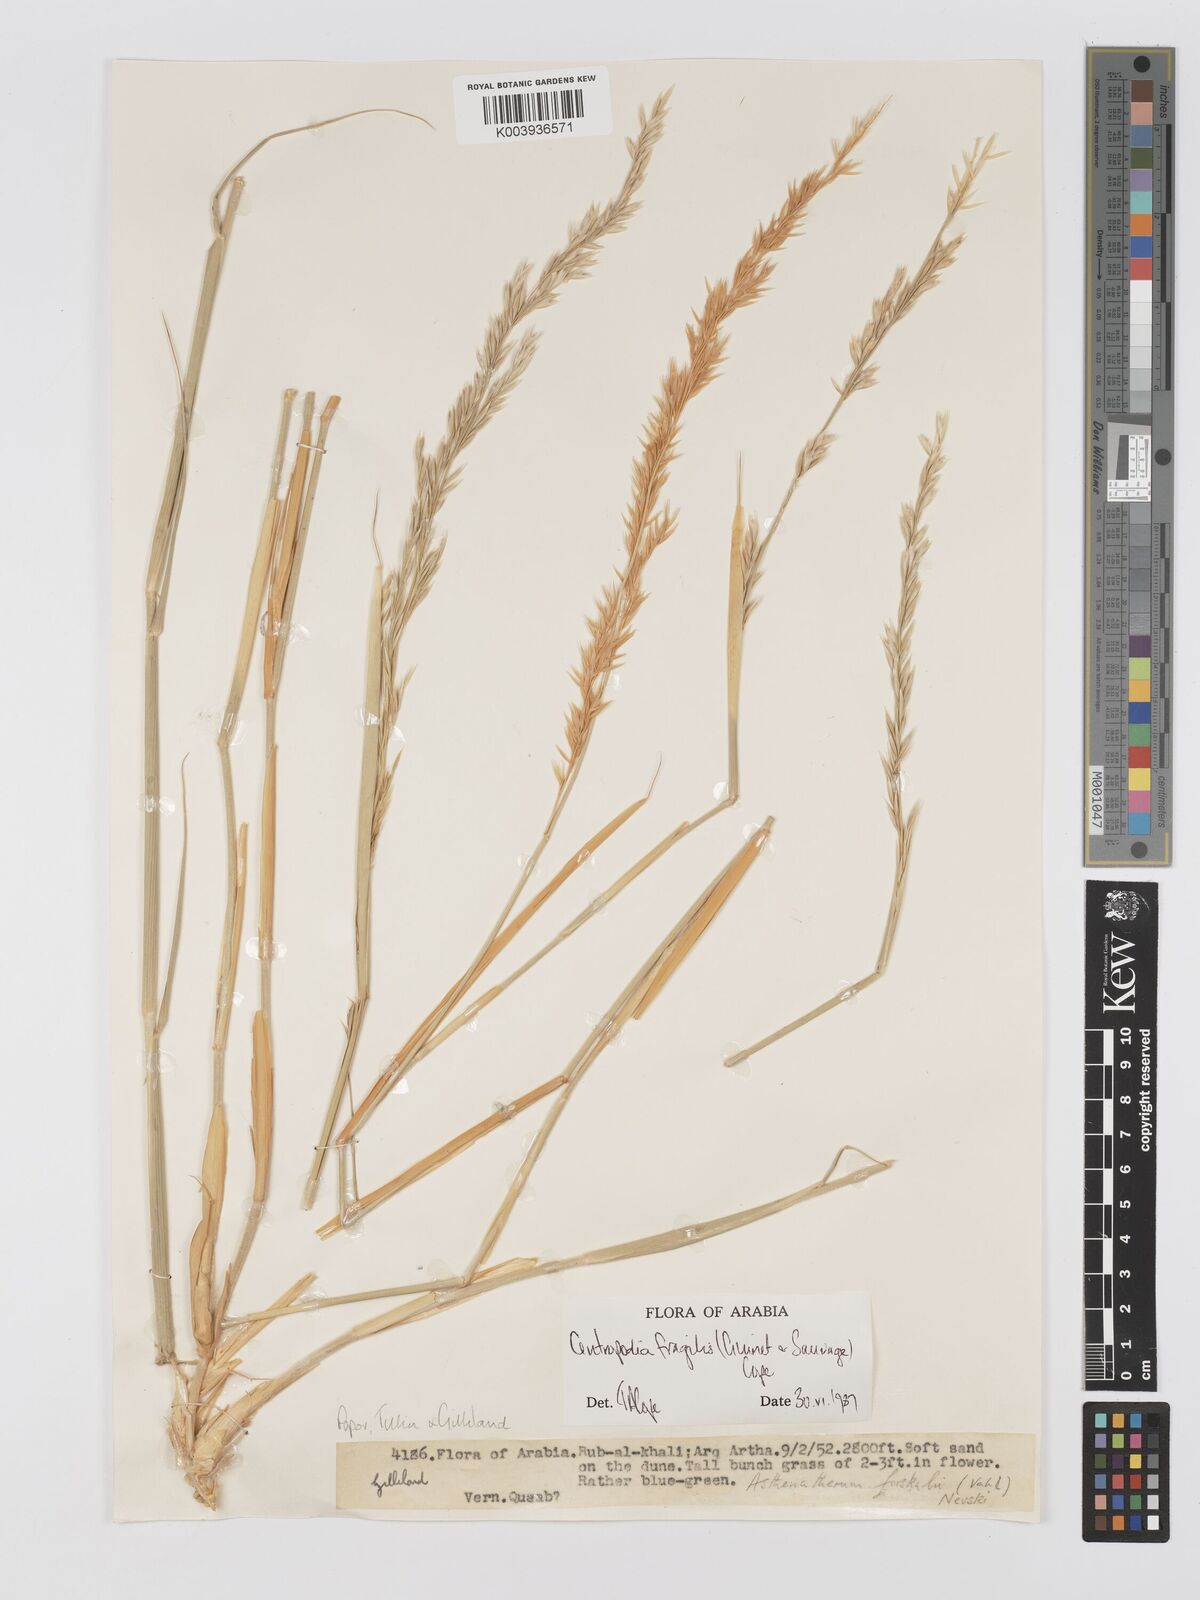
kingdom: Plantae
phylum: Tracheophyta
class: Liliopsida
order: Poales
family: Poaceae
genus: Centropodia
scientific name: Centropodia fragilis
